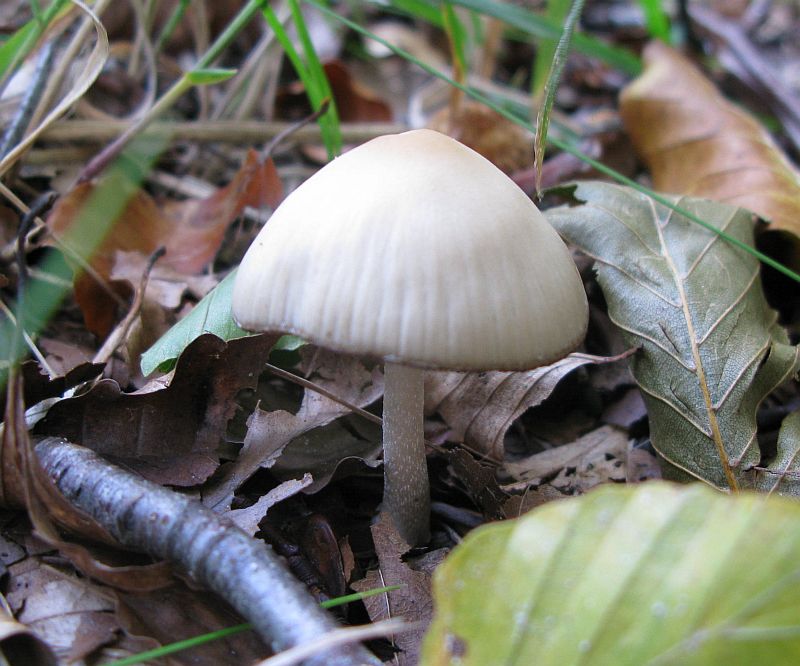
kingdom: Fungi
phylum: Basidiomycota
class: Agaricomycetes
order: Agaricales
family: Psathyrellaceae
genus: Psathyrella
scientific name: Psathyrella fusca
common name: gråbladet mørkhat
